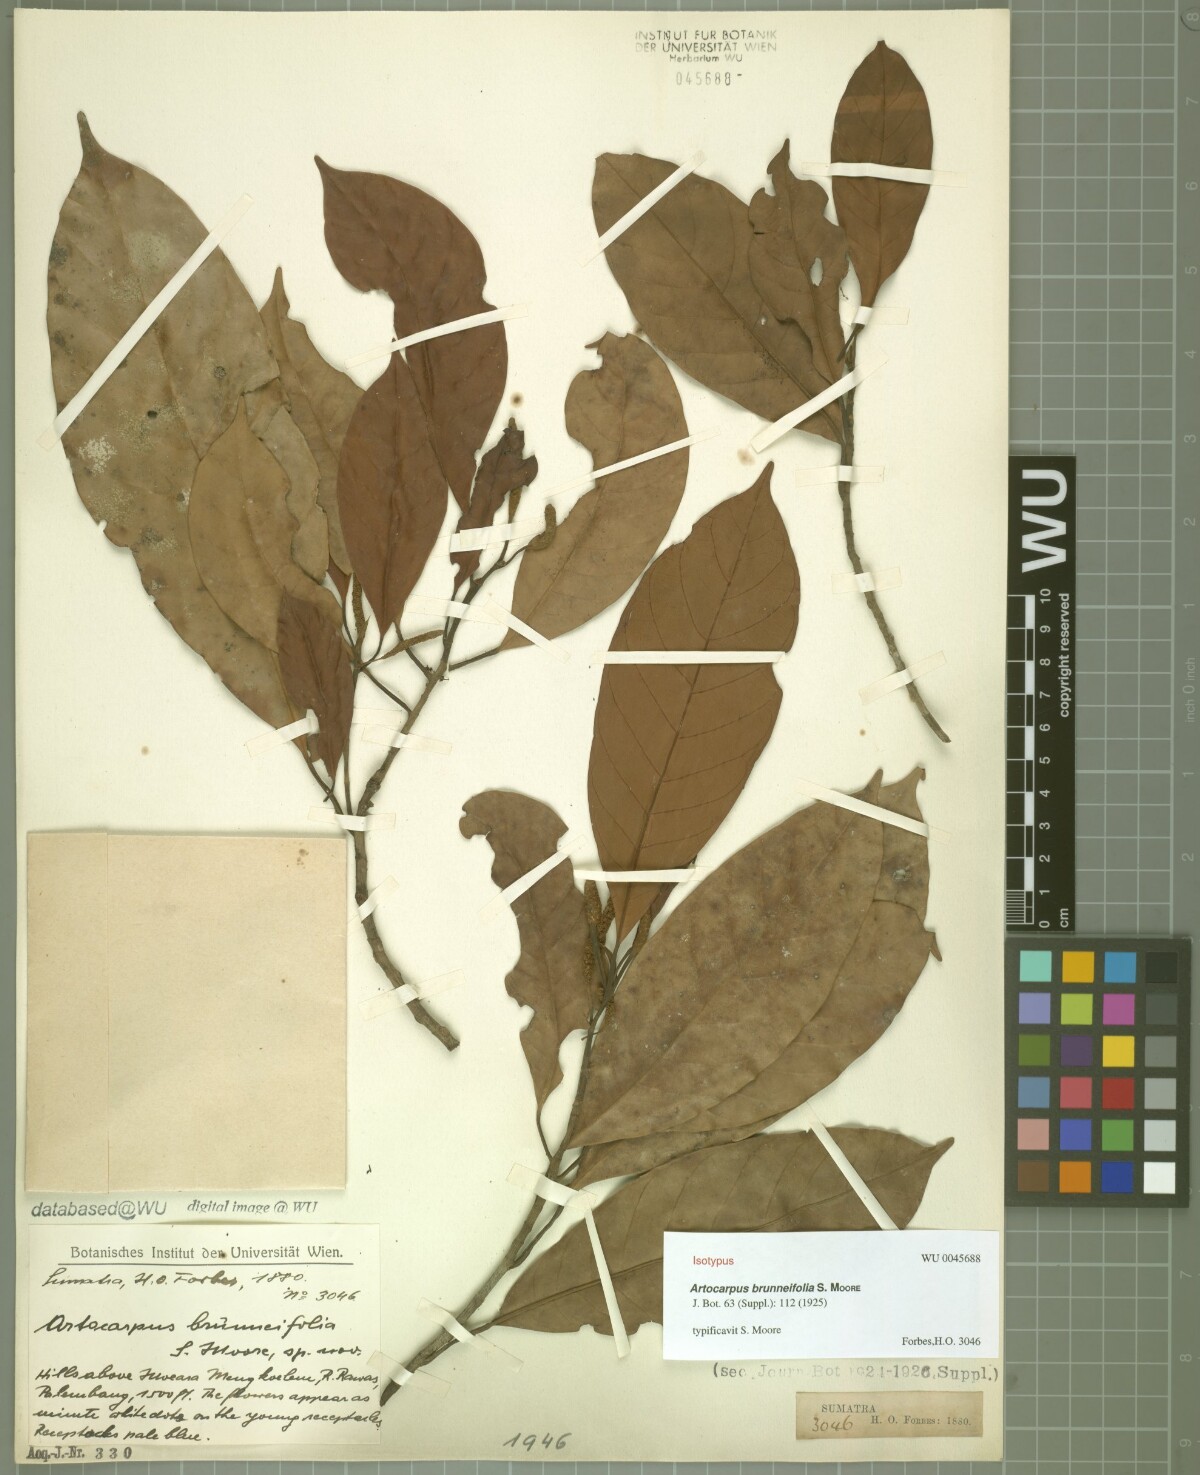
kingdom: Plantae
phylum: Tracheophyta
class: Magnoliopsida
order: Rosales
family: Moraceae
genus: Artocarpus
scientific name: Artocarpus kemando
